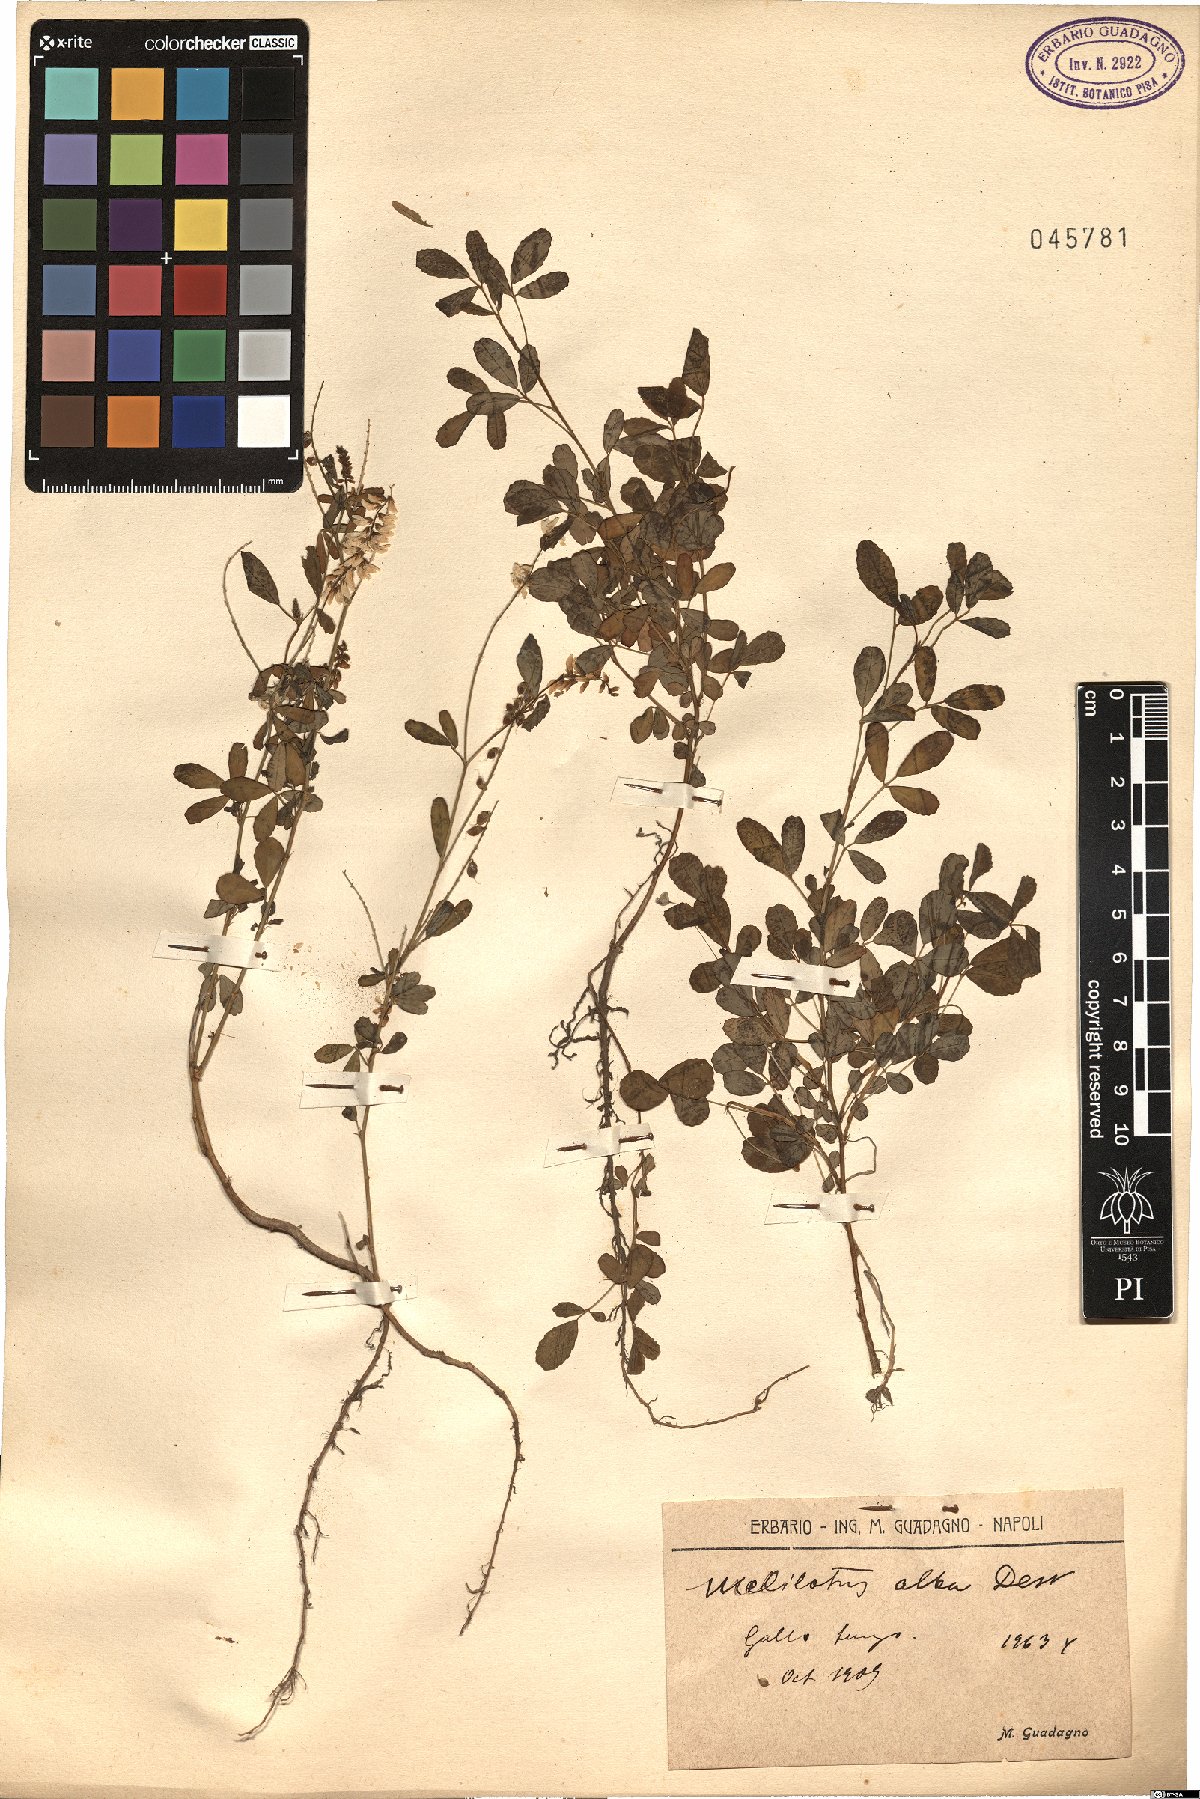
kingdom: Plantae
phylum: Tracheophyta
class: Magnoliopsida
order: Fabales
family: Fabaceae
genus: Melilotus
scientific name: Melilotus albus
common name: White melilot
